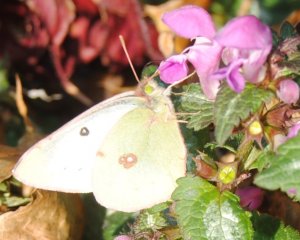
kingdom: Animalia
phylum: Arthropoda
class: Insecta
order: Lepidoptera
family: Pieridae
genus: Colias
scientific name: Colias philodice
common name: Clouded Sulphur
